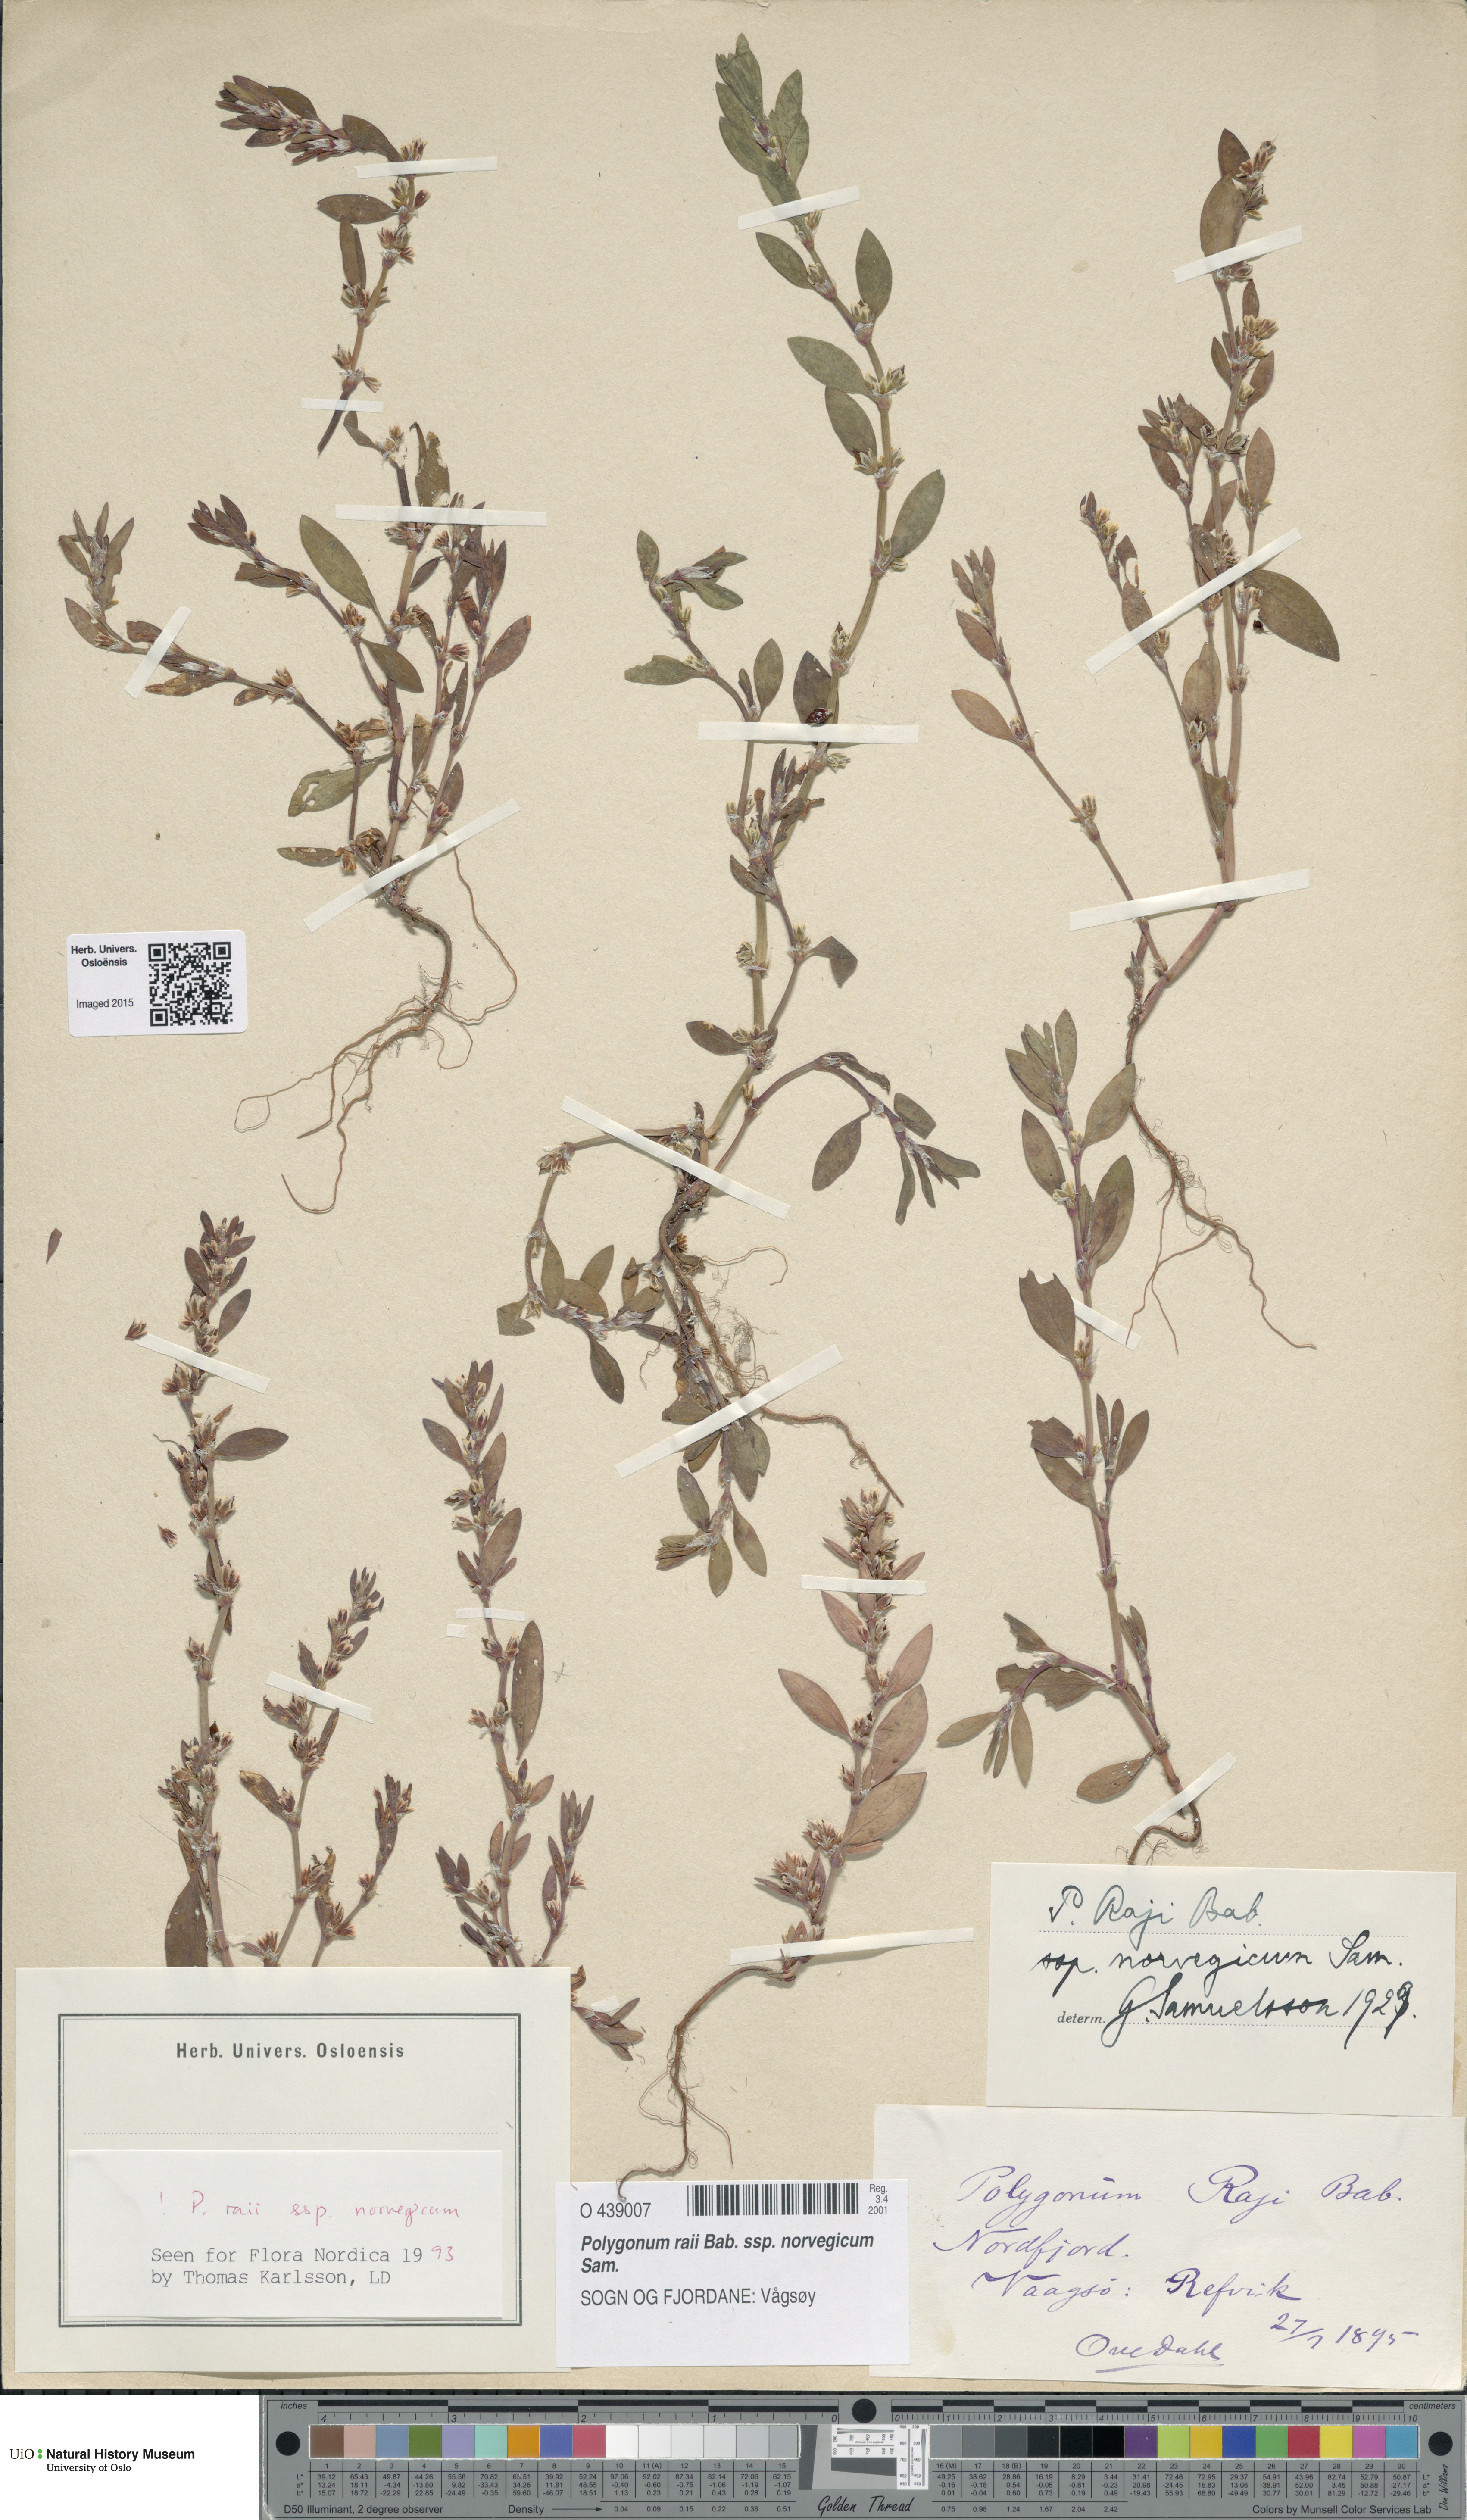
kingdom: Plantae
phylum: Tracheophyta
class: Magnoliopsida
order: Caryophyllales
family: Polygonaceae
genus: Polygonum
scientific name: Polygonum norvegicum
